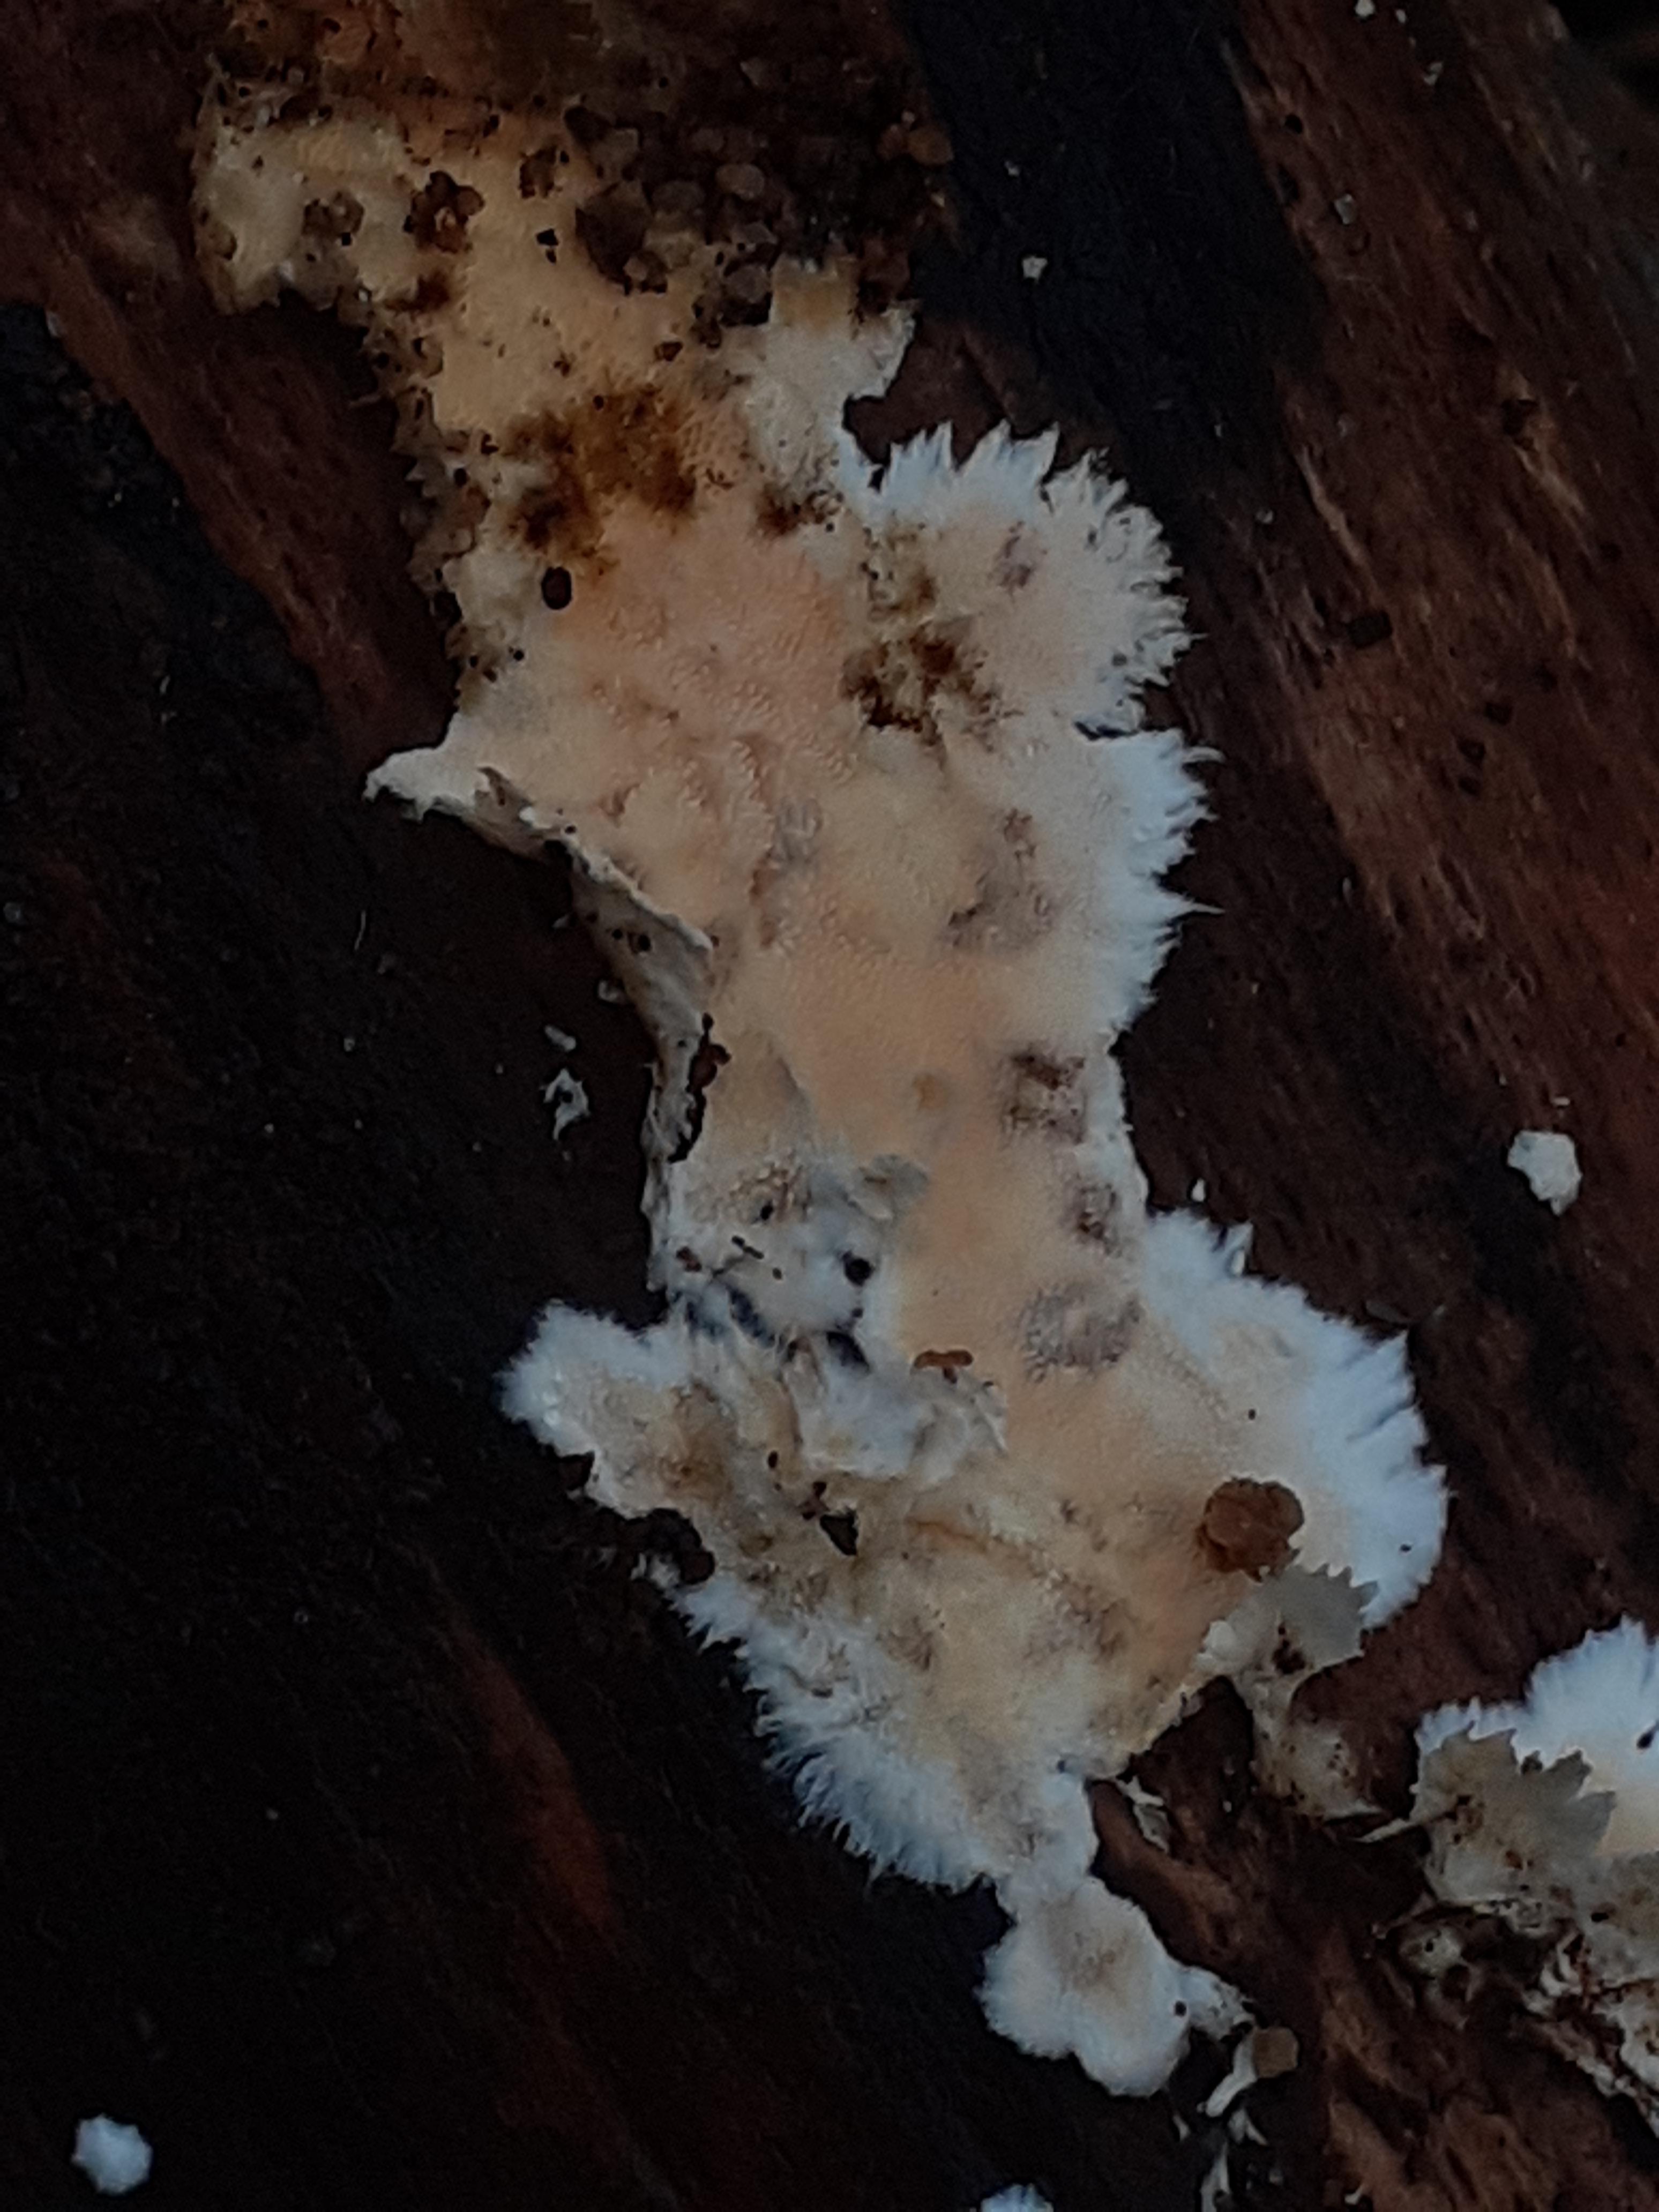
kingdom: Fungi
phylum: Basidiomycota
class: Agaricomycetes
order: Polyporales
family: Steccherinaceae
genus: Steccherinum
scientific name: Steccherinum ochraceum
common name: almindelig skønpig
